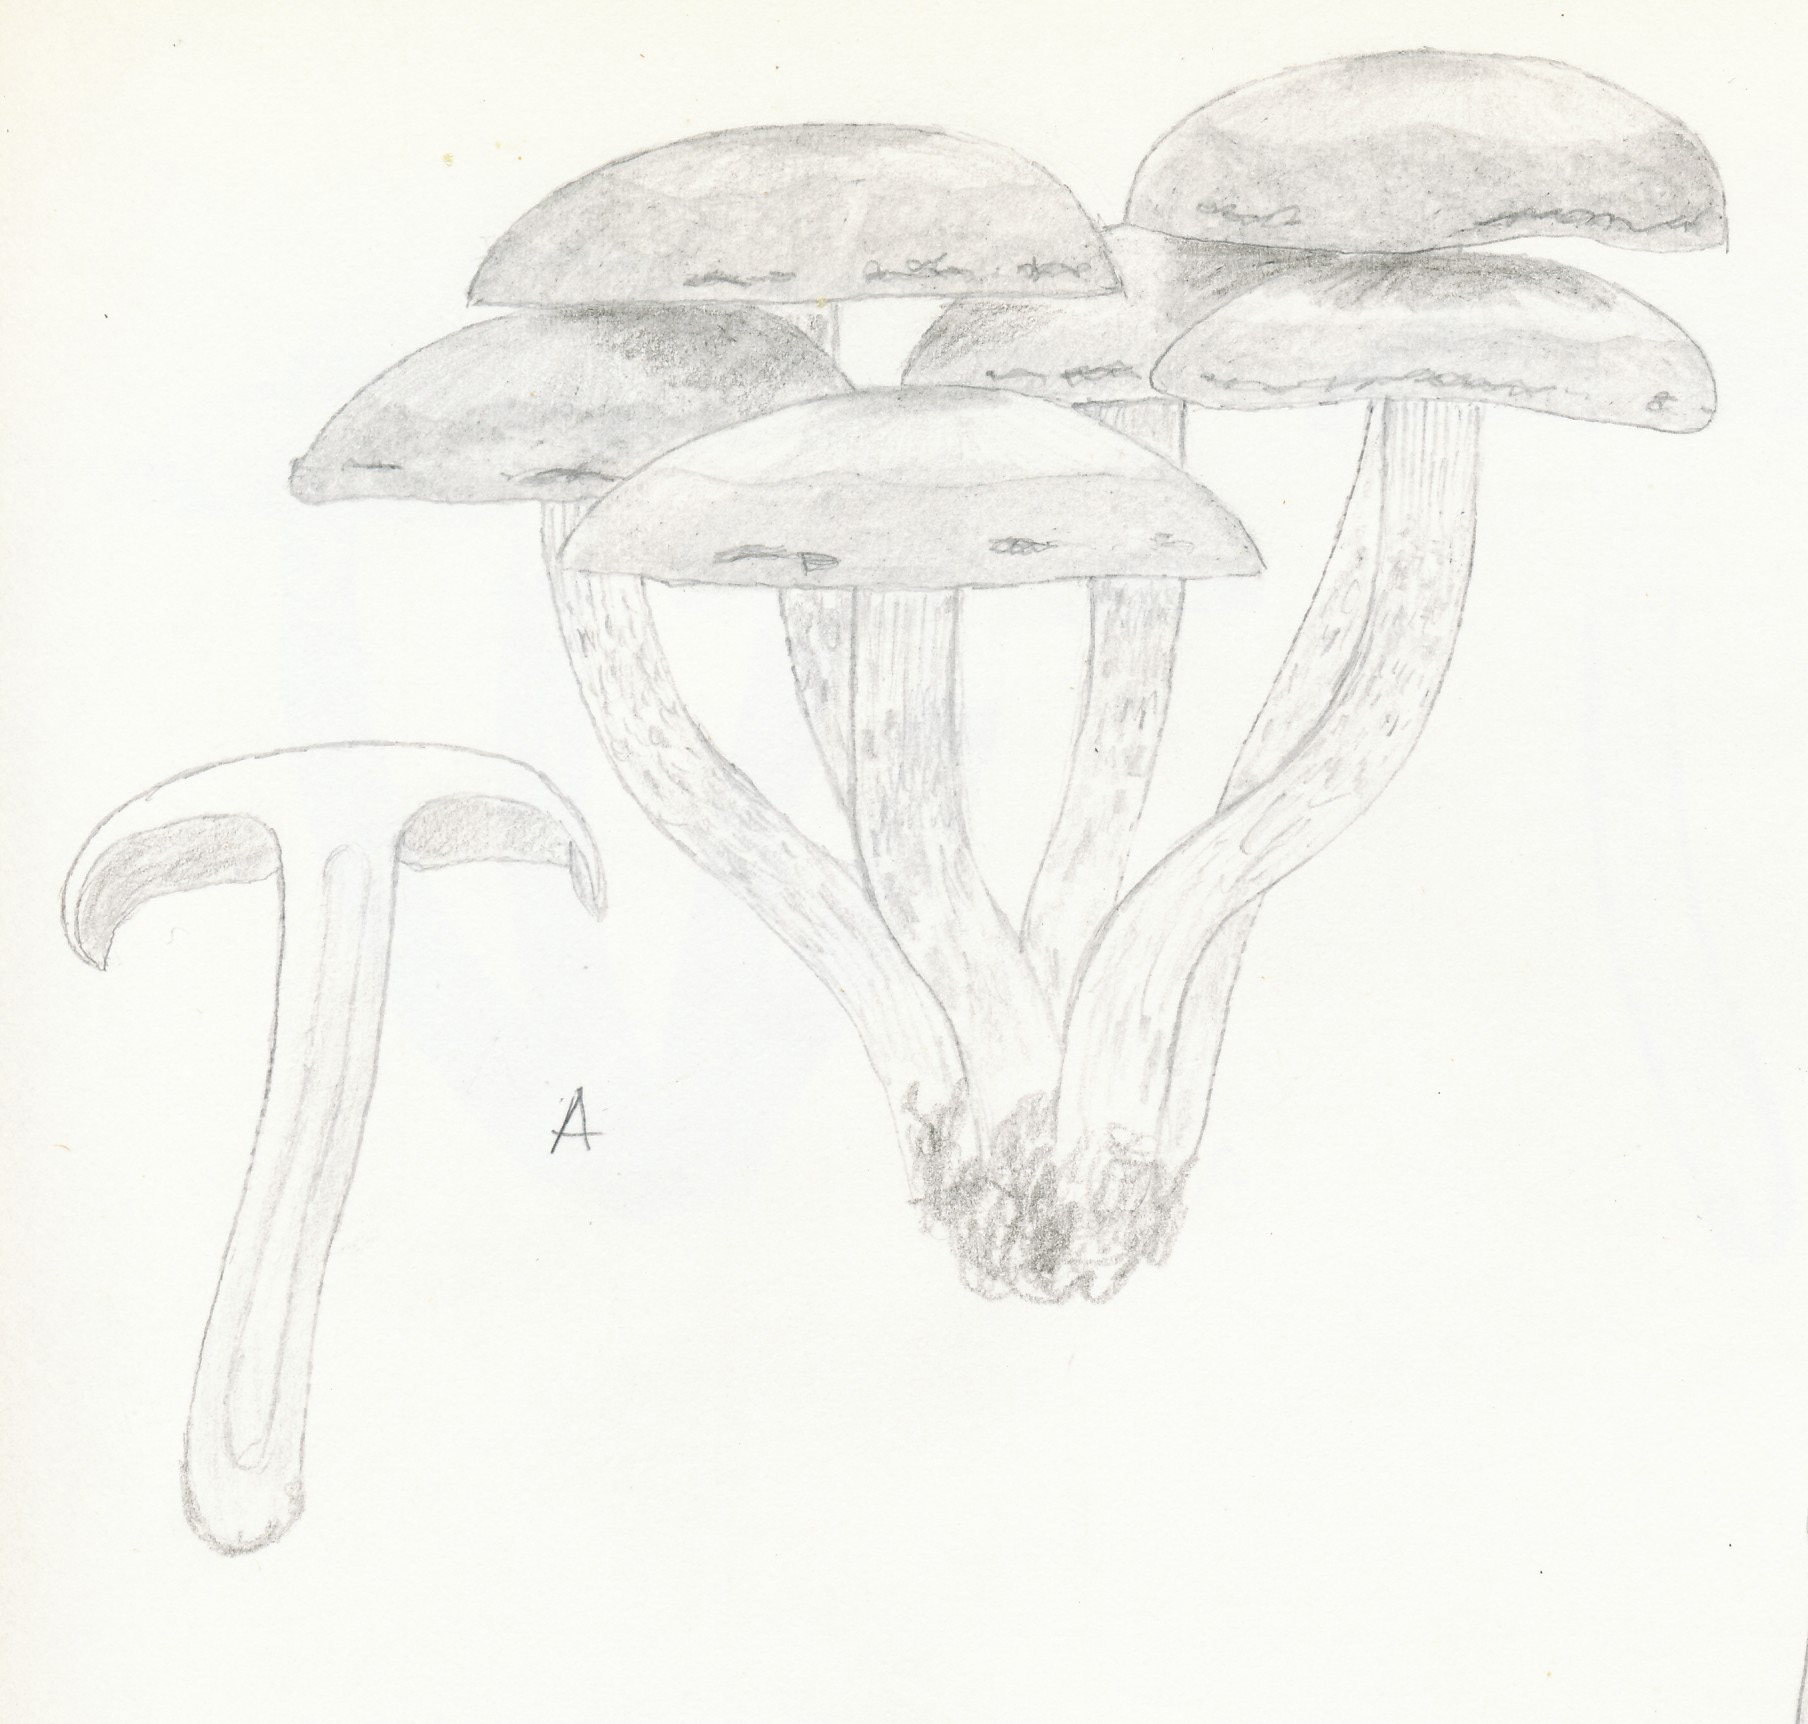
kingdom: Fungi
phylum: Basidiomycota
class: Agaricomycetes
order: Agaricales
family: Strophariaceae
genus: Hypholoma
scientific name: Hypholoma fasciculare
